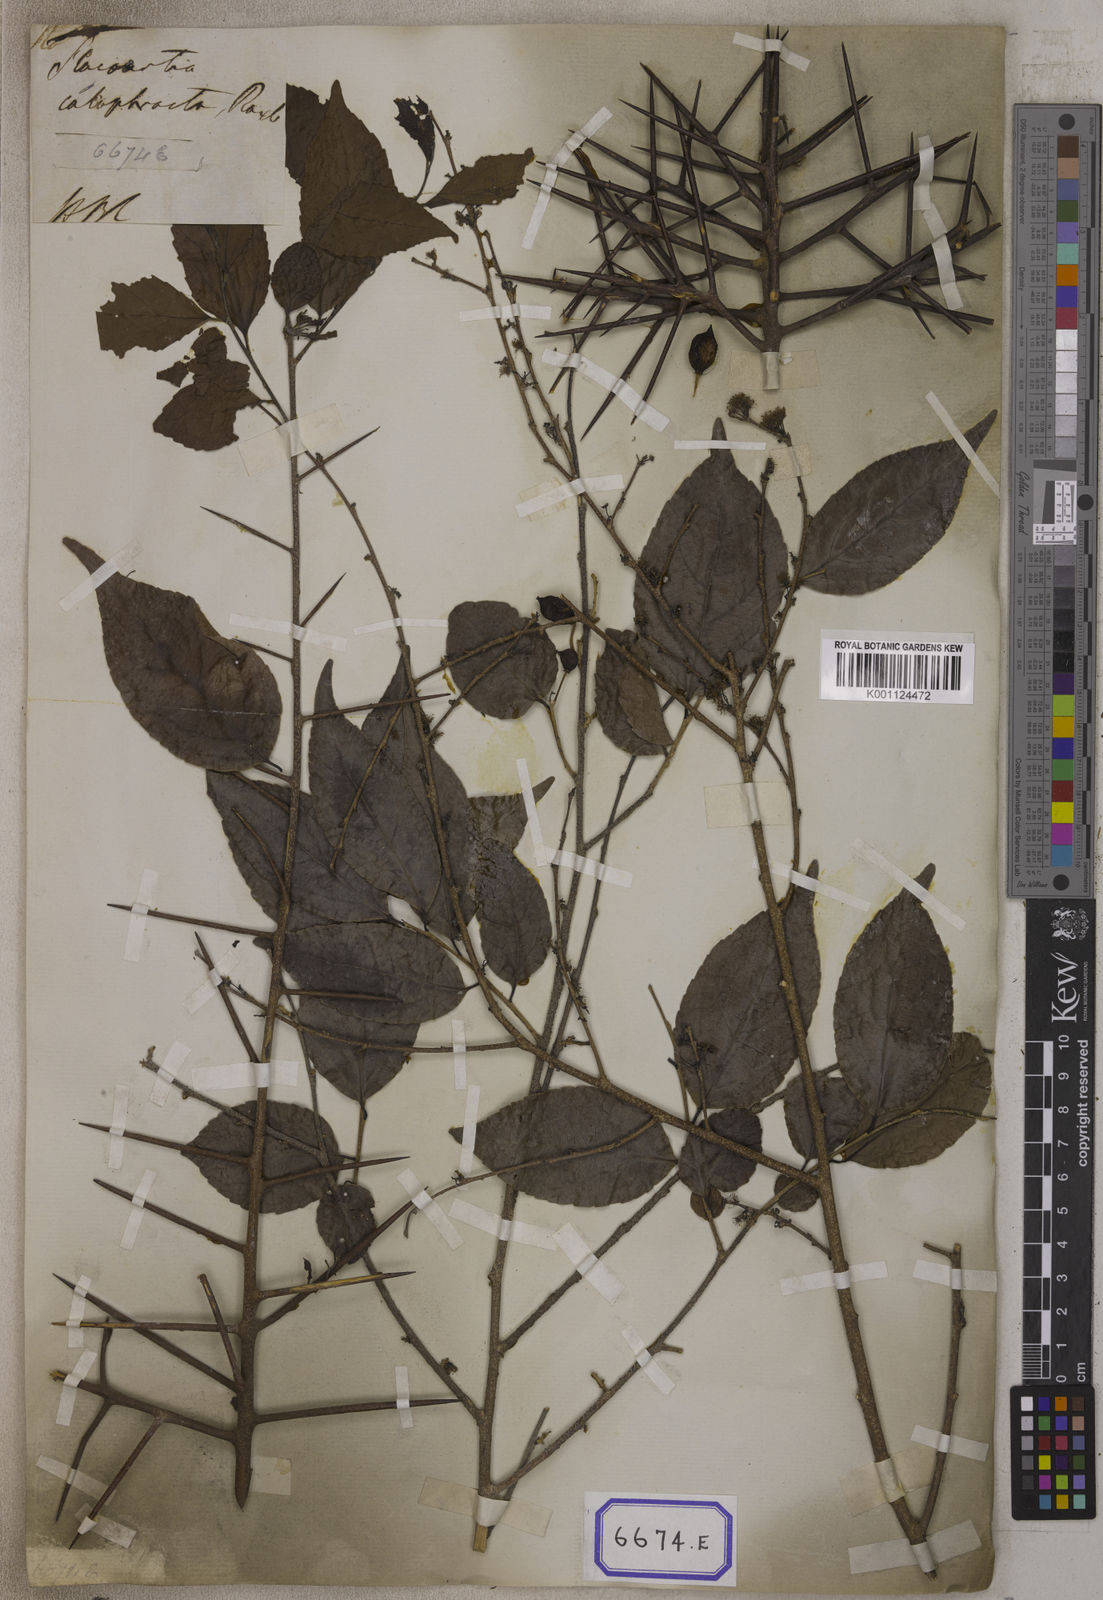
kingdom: Plantae
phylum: Tracheophyta
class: Magnoliopsida
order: Malpighiales
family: Salicaceae
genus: Flacourtia
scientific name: Flacourtia
